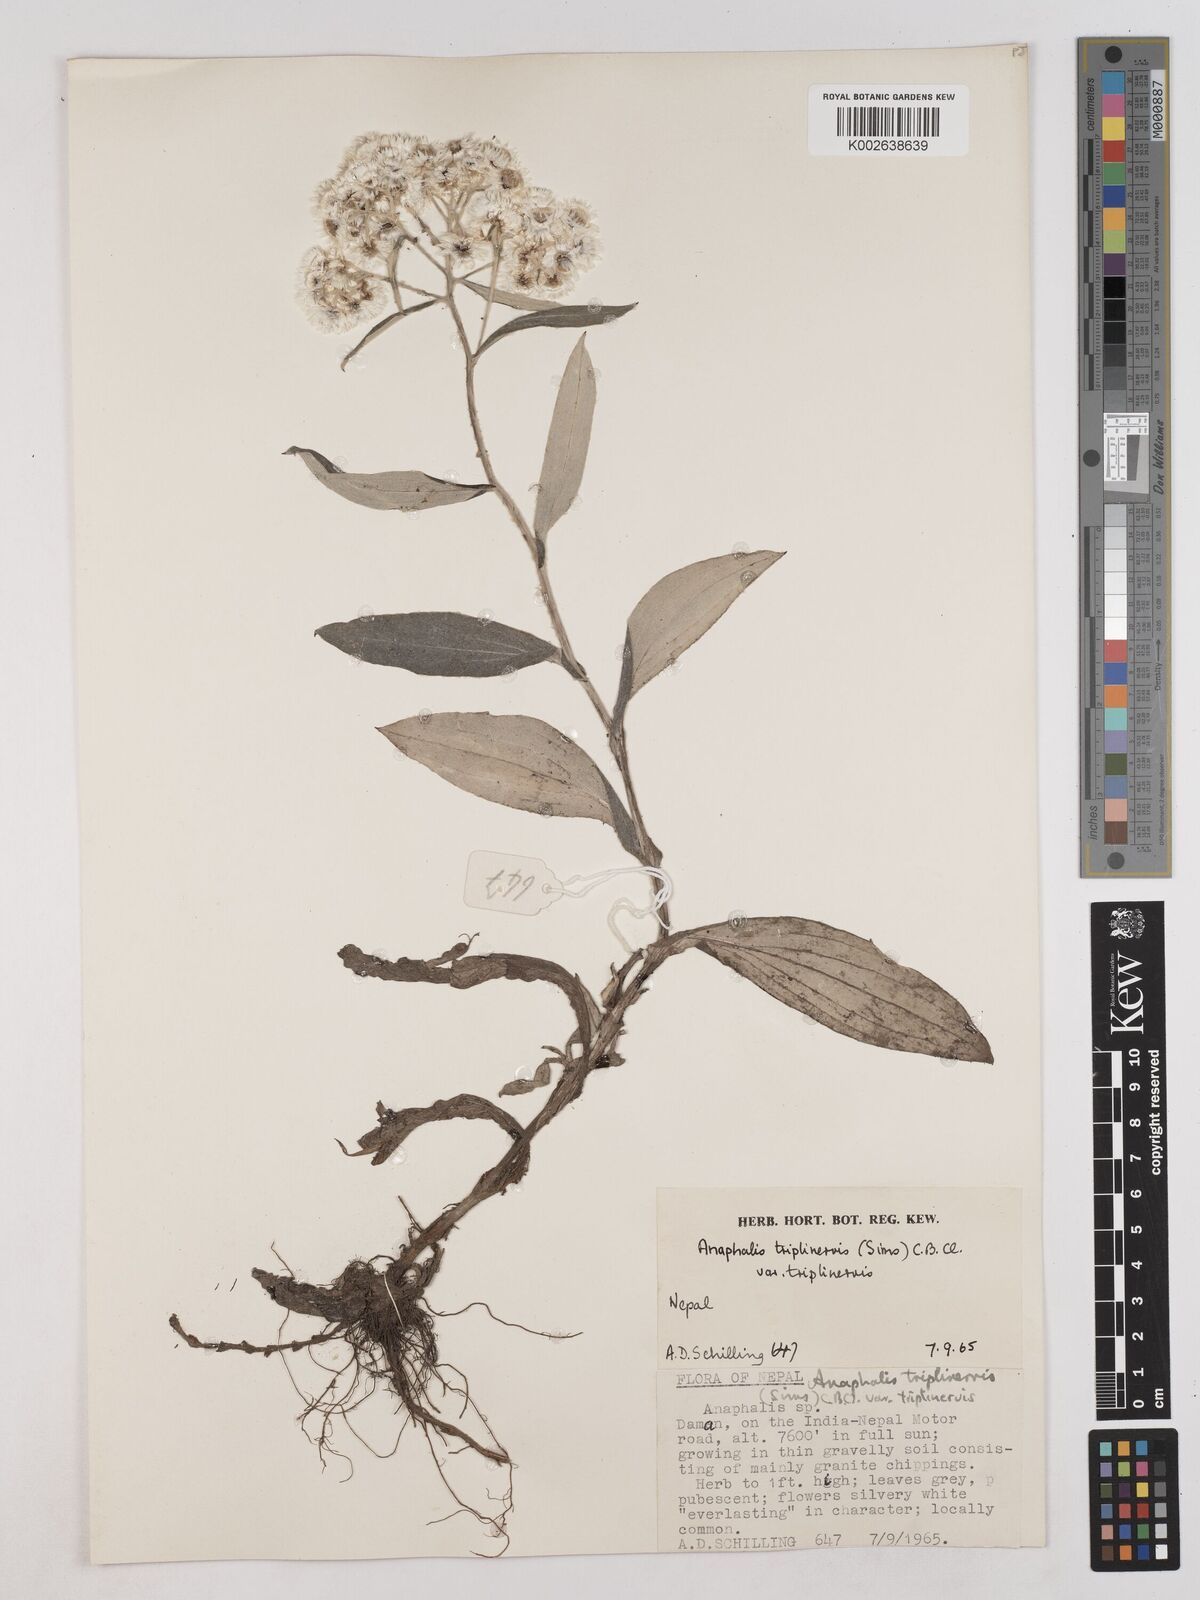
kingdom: Plantae
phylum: Tracheophyta
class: Magnoliopsida
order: Asterales
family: Asteraceae
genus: Anaphalis
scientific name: Anaphalis triplinervis
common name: Pearly everlasting
